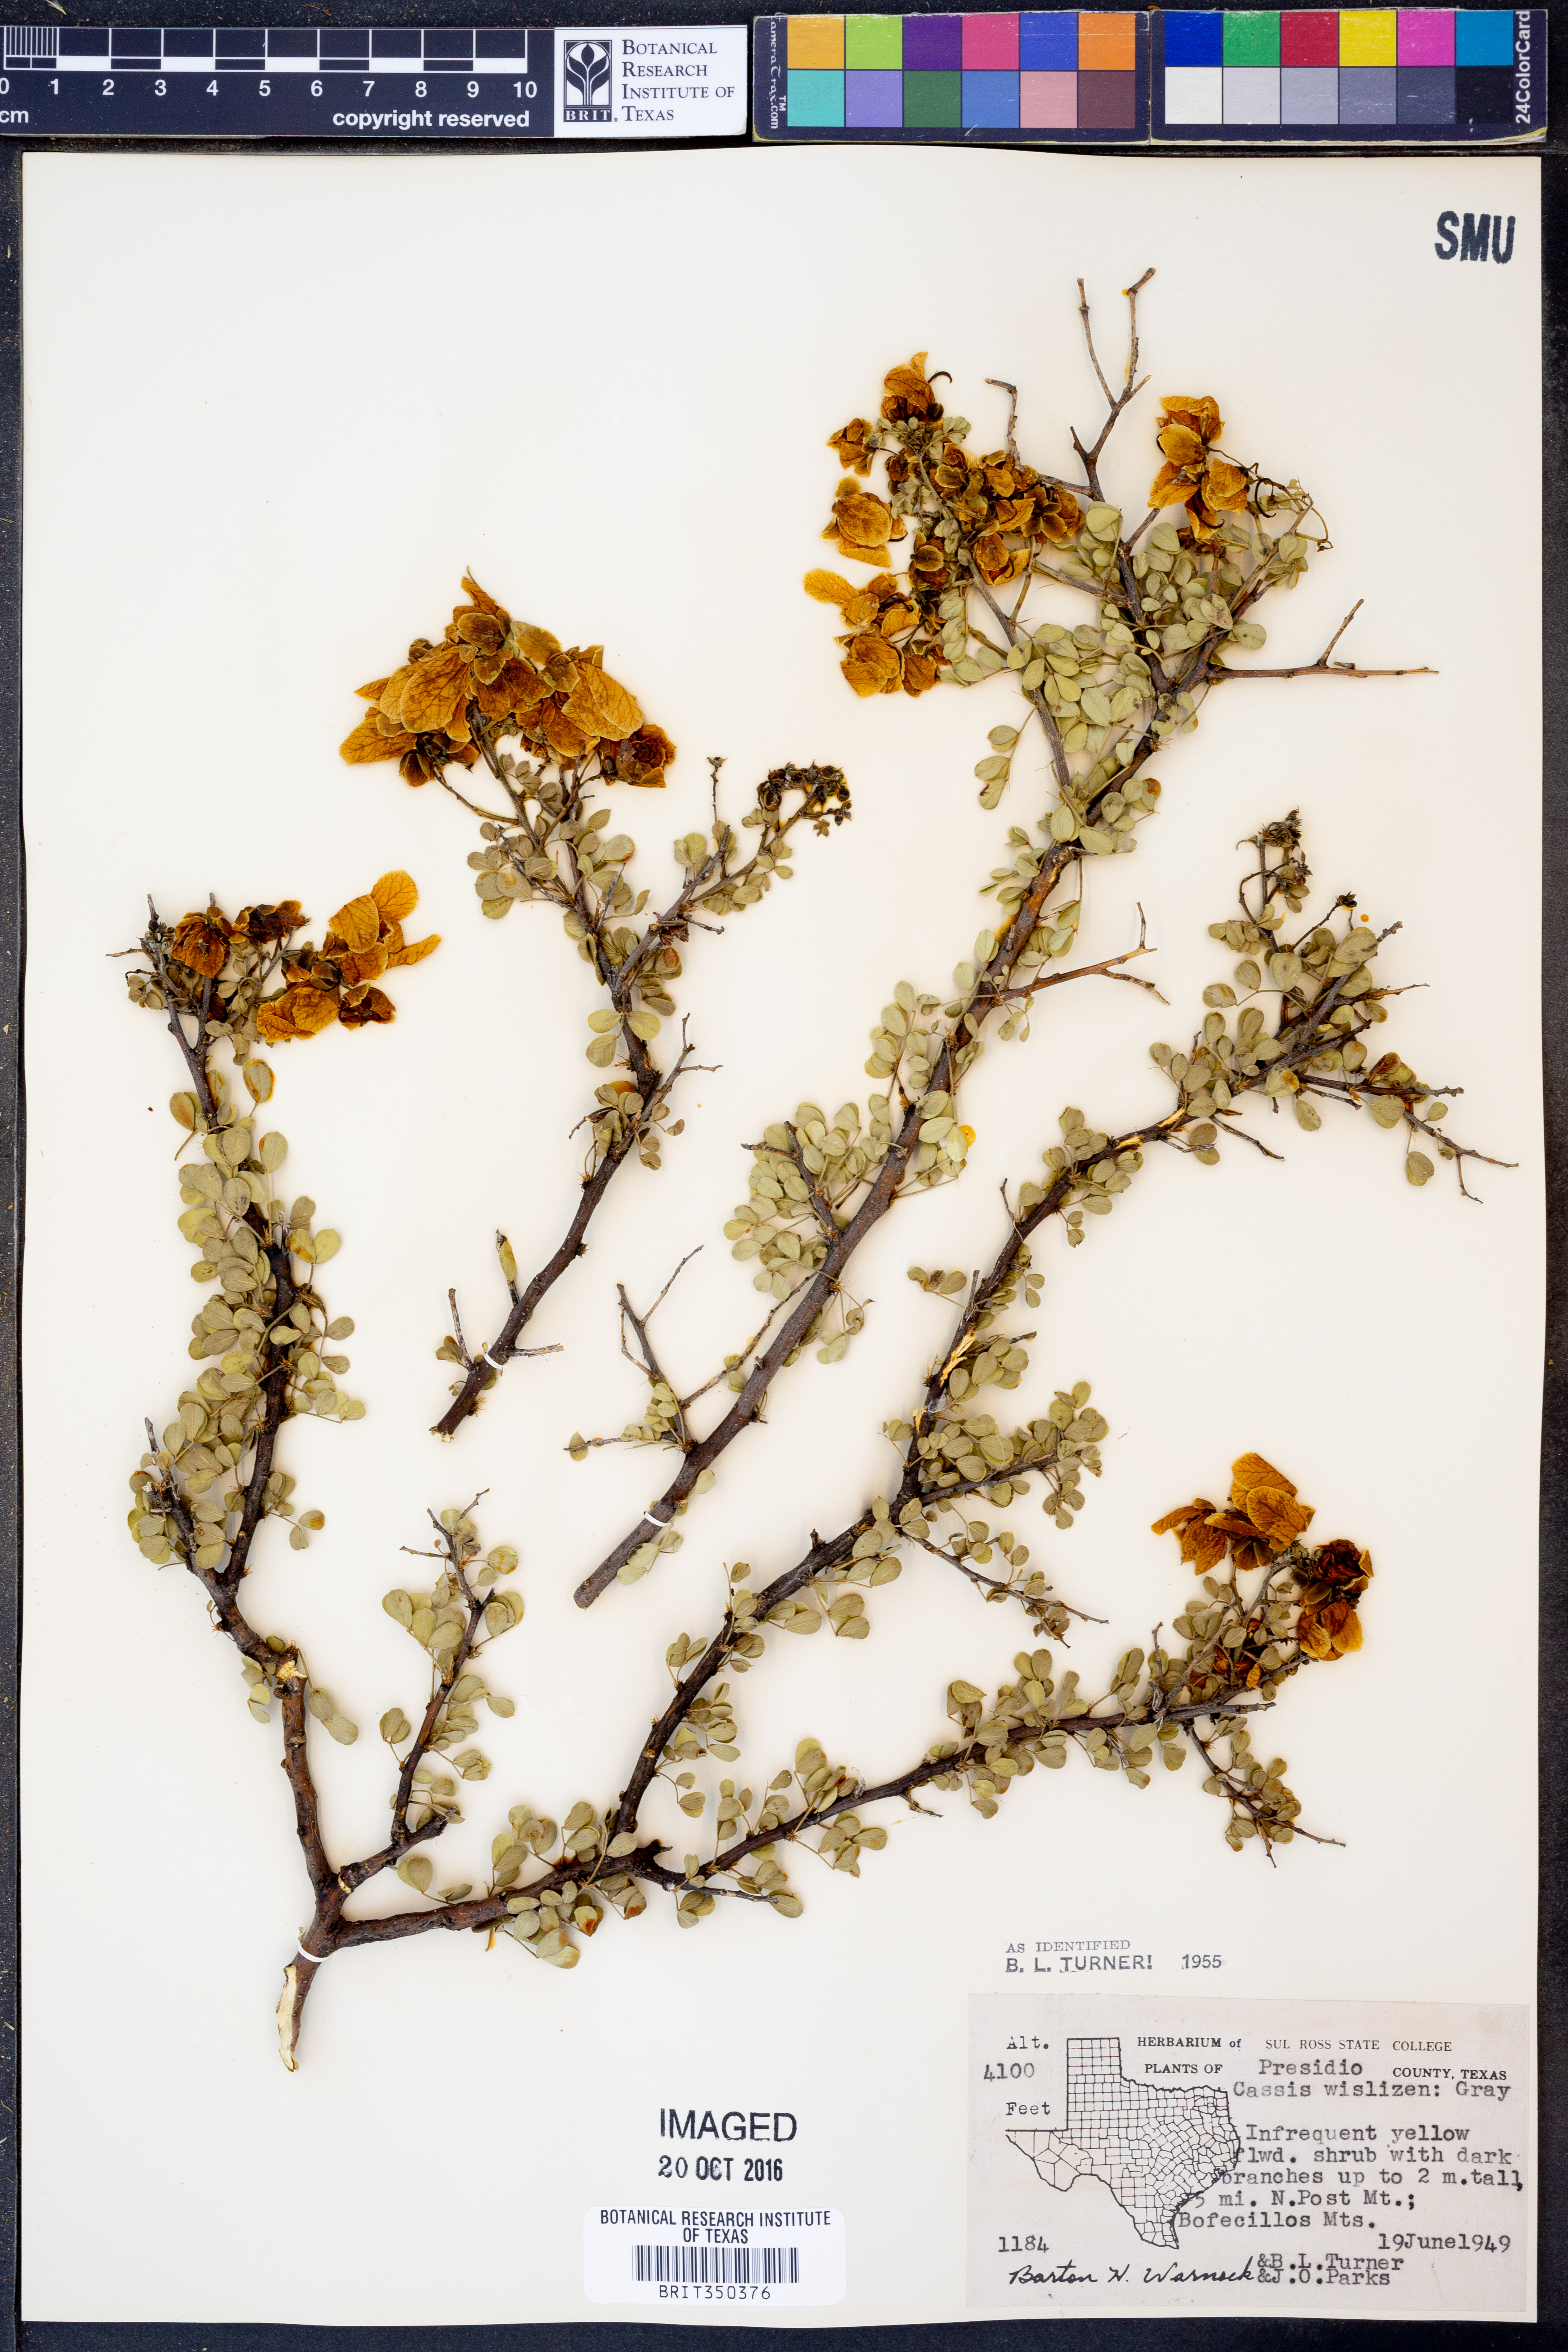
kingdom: Plantae
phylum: Tracheophyta
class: Magnoliopsida
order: Fabales
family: Fabaceae
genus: Senna
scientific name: Senna wislizeni
